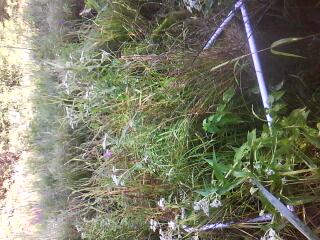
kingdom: Plantae
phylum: Tracheophyta
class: Magnoliopsida
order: Asterales
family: Asteraceae
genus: Eupatorium
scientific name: Eupatorium perfoliatum
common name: Boneset
